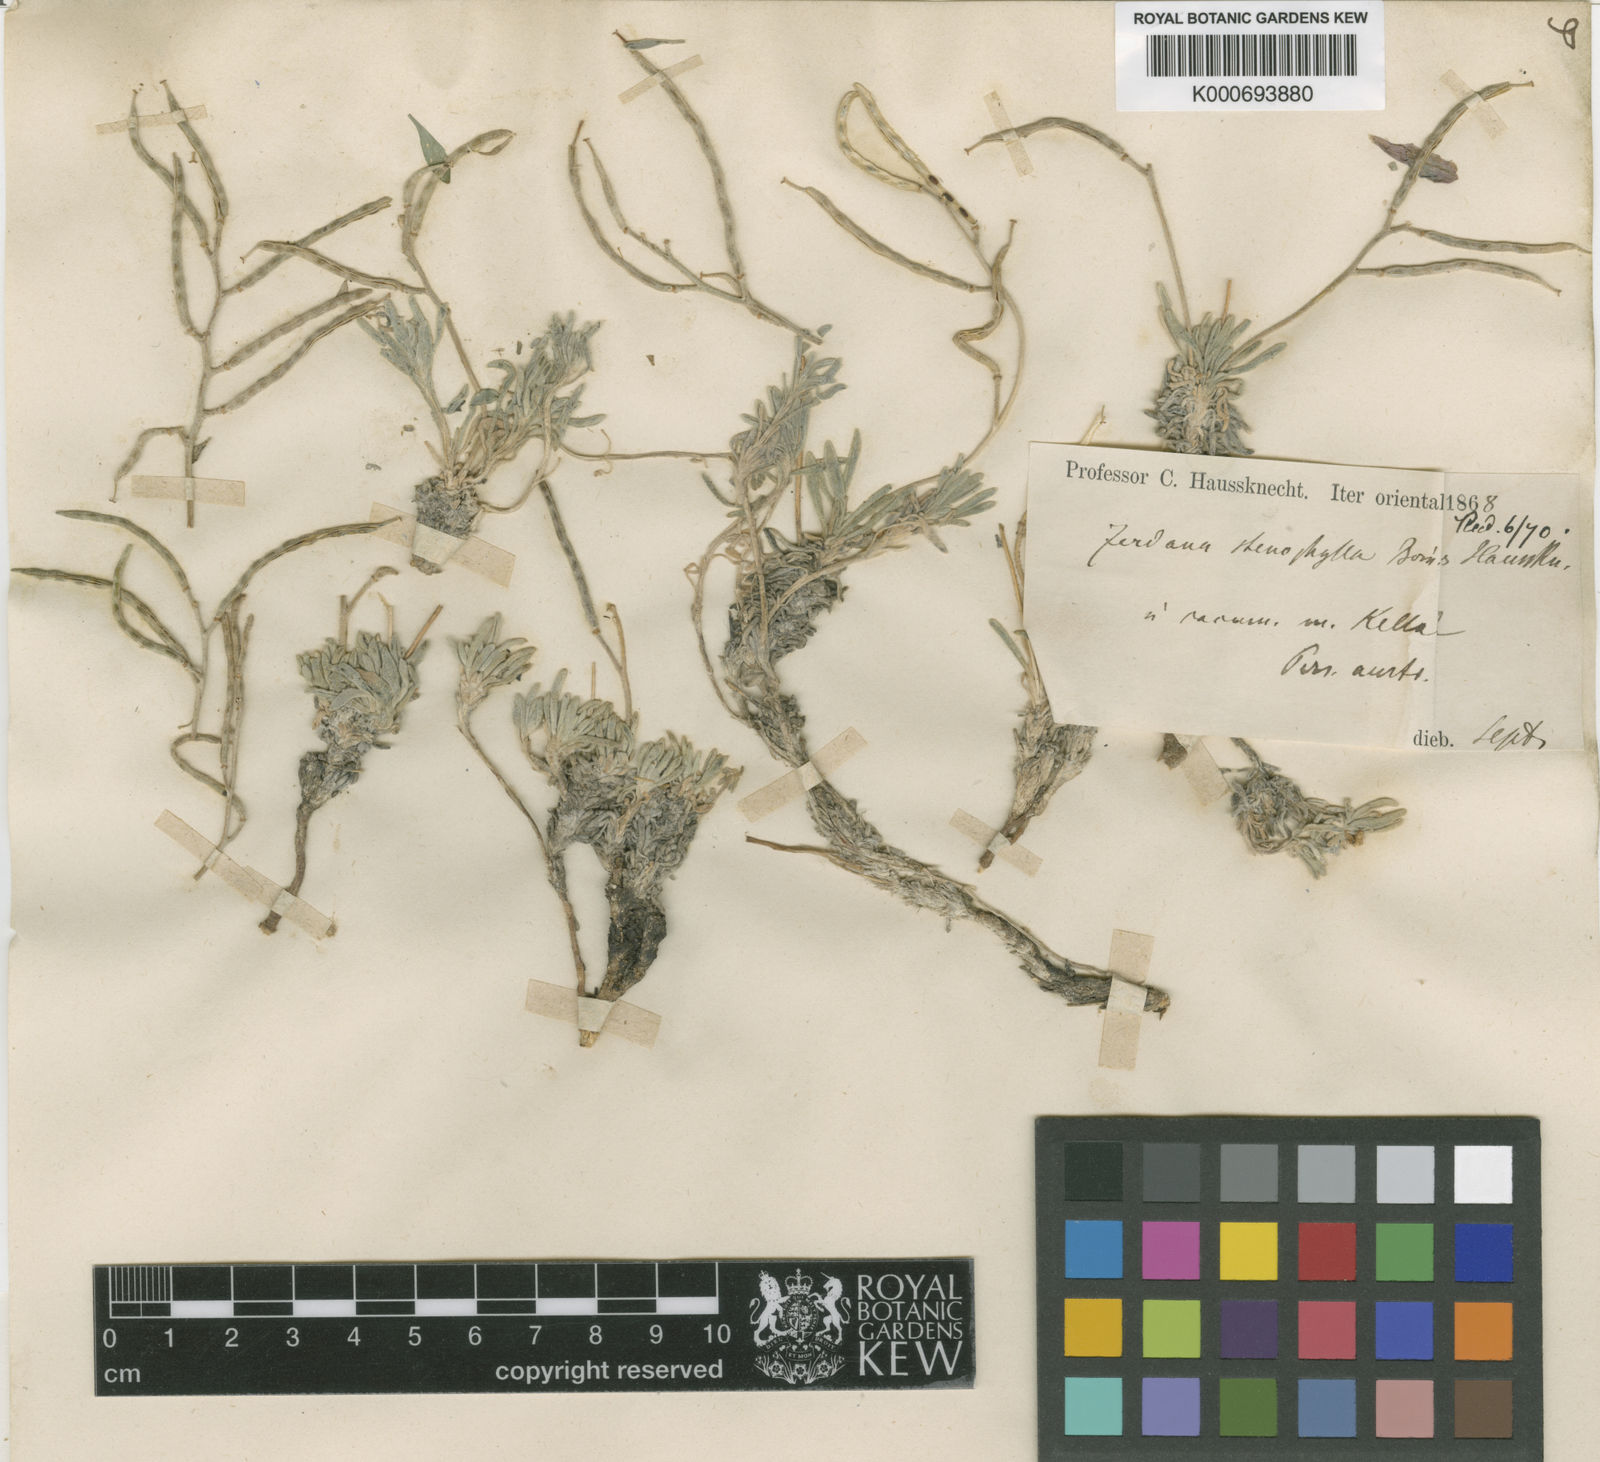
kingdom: Plantae
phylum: Tracheophyta
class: Magnoliopsida
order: Brassicales
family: Brassicaceae
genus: Zerdana
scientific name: Zerdana
